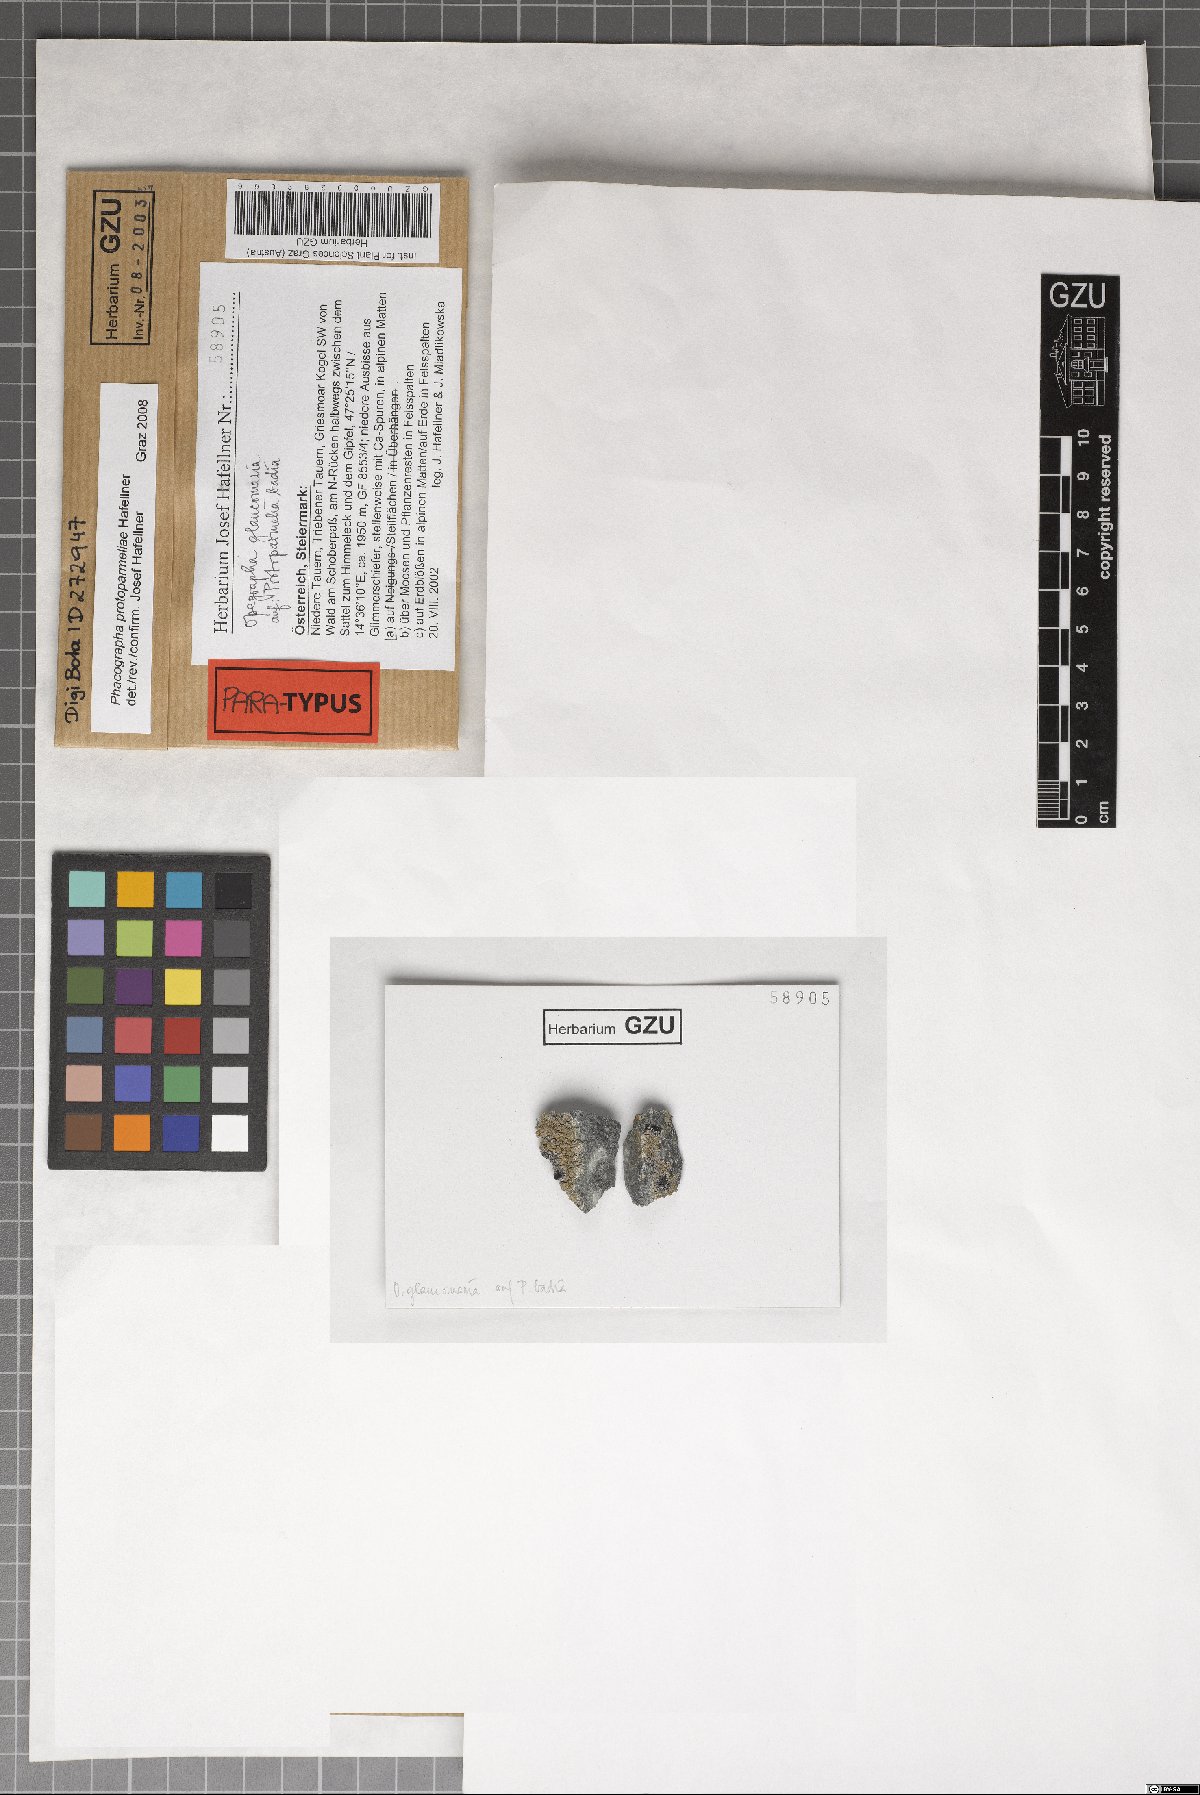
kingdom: Fungi
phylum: Ascomycota
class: Arthoniomycetes
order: Arthoniales
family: Roccellaceae
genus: Phacographa
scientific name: Phacographa protoparmeliae
